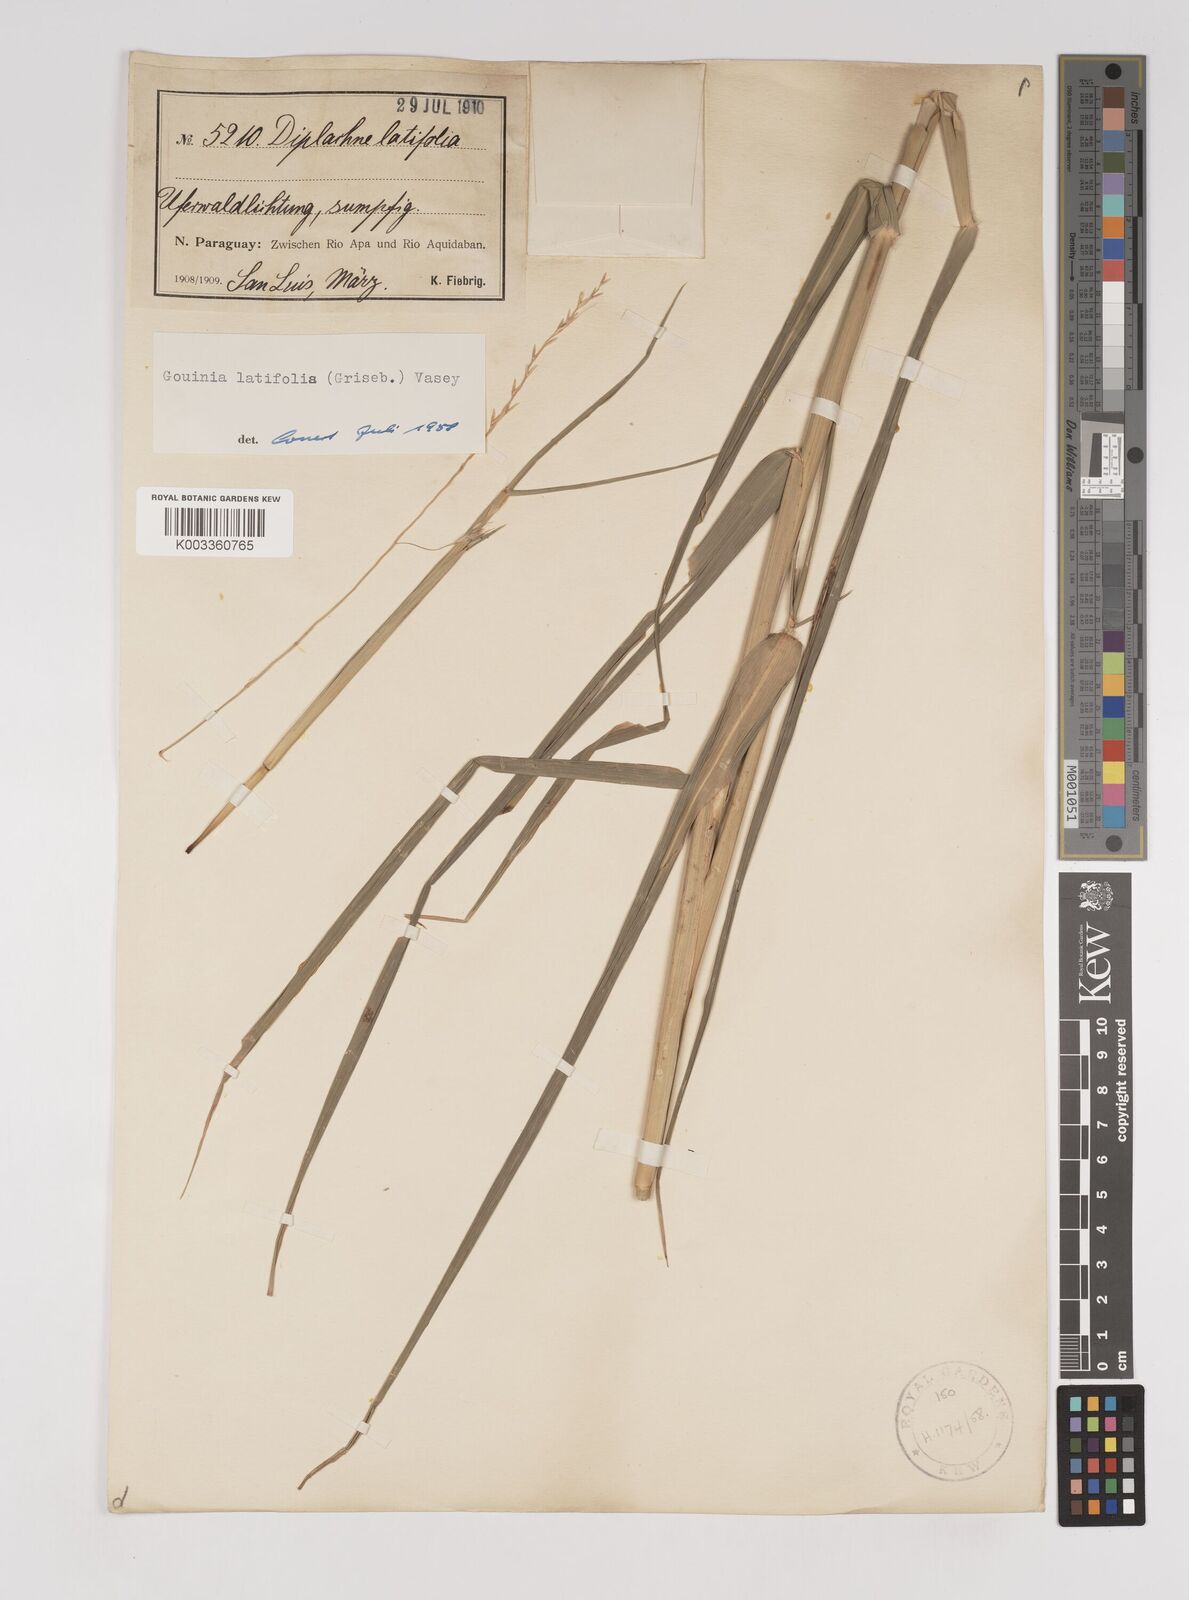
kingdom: Plantae
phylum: Tracheophyta
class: Liliopsida
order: Poales
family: Poaceae
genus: Gouinia
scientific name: Gouinia latifolia
